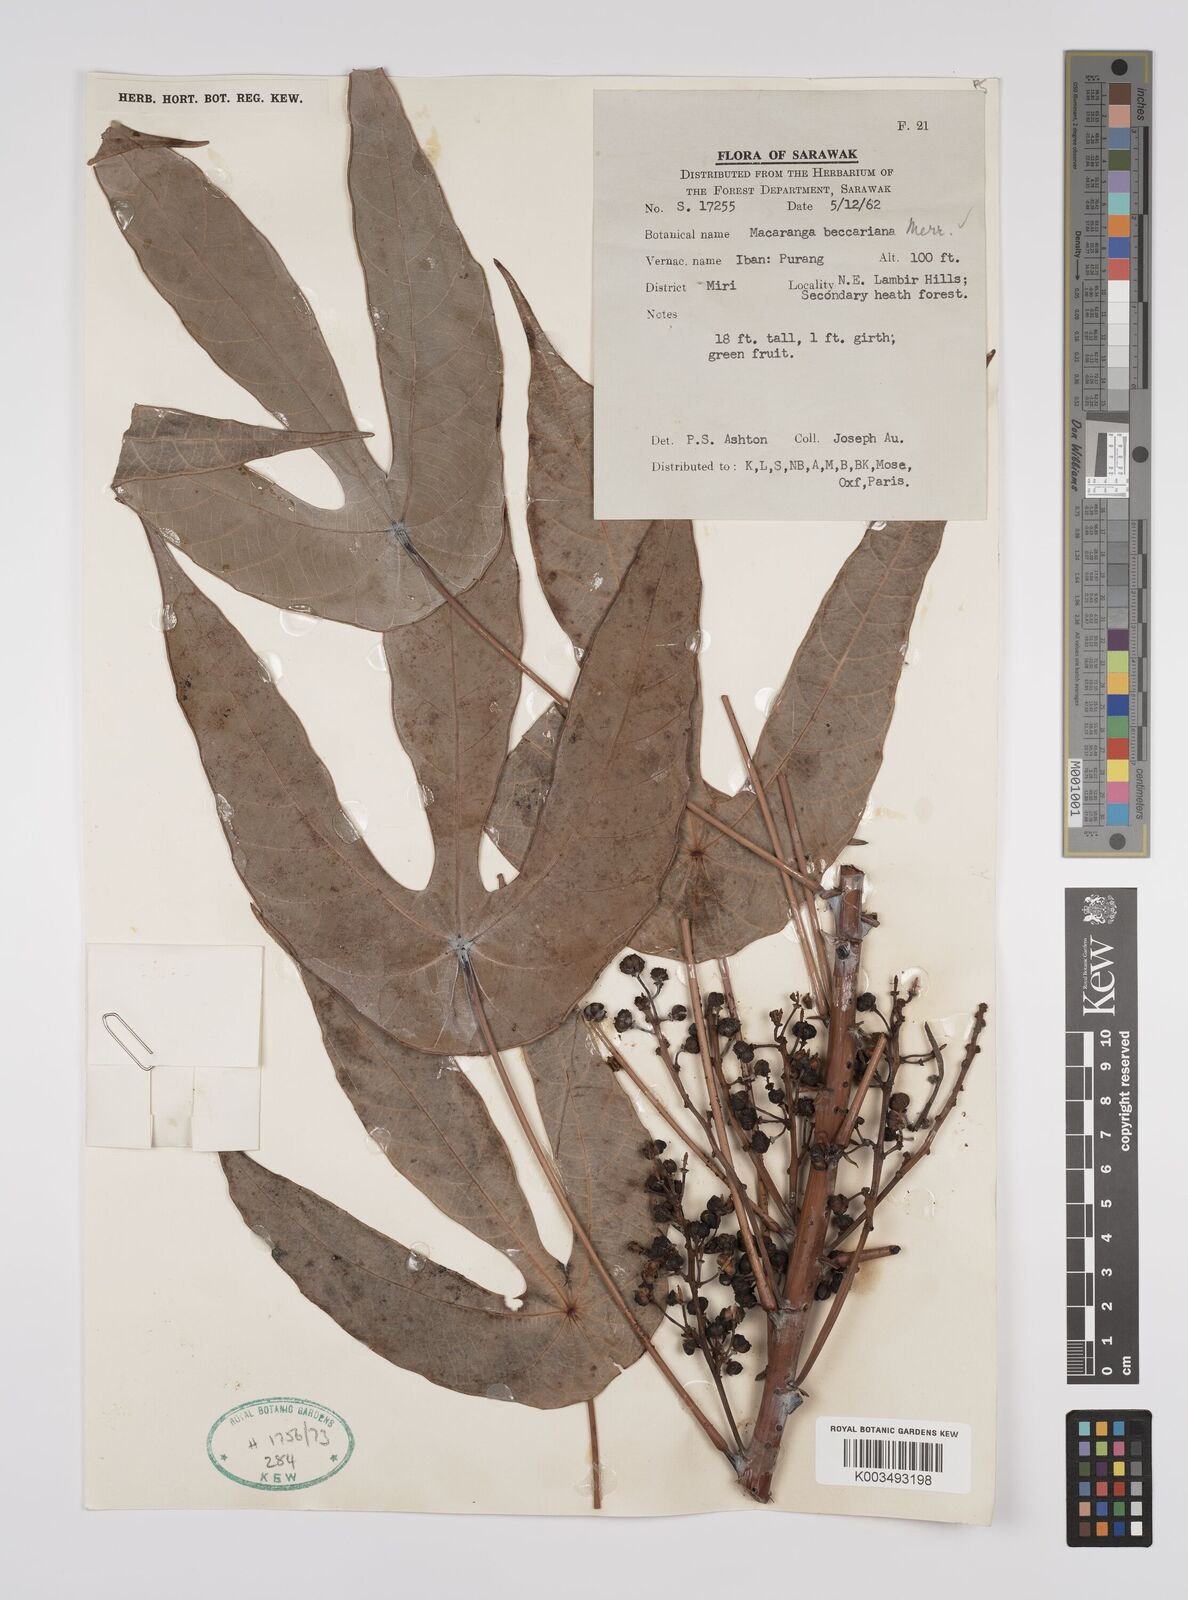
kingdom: Plantae
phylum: Tracheophyta
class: Magnoliopsida
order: Malpighiales
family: Euphorbiaceae
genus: Macaranga
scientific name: Macaranga beccariana
